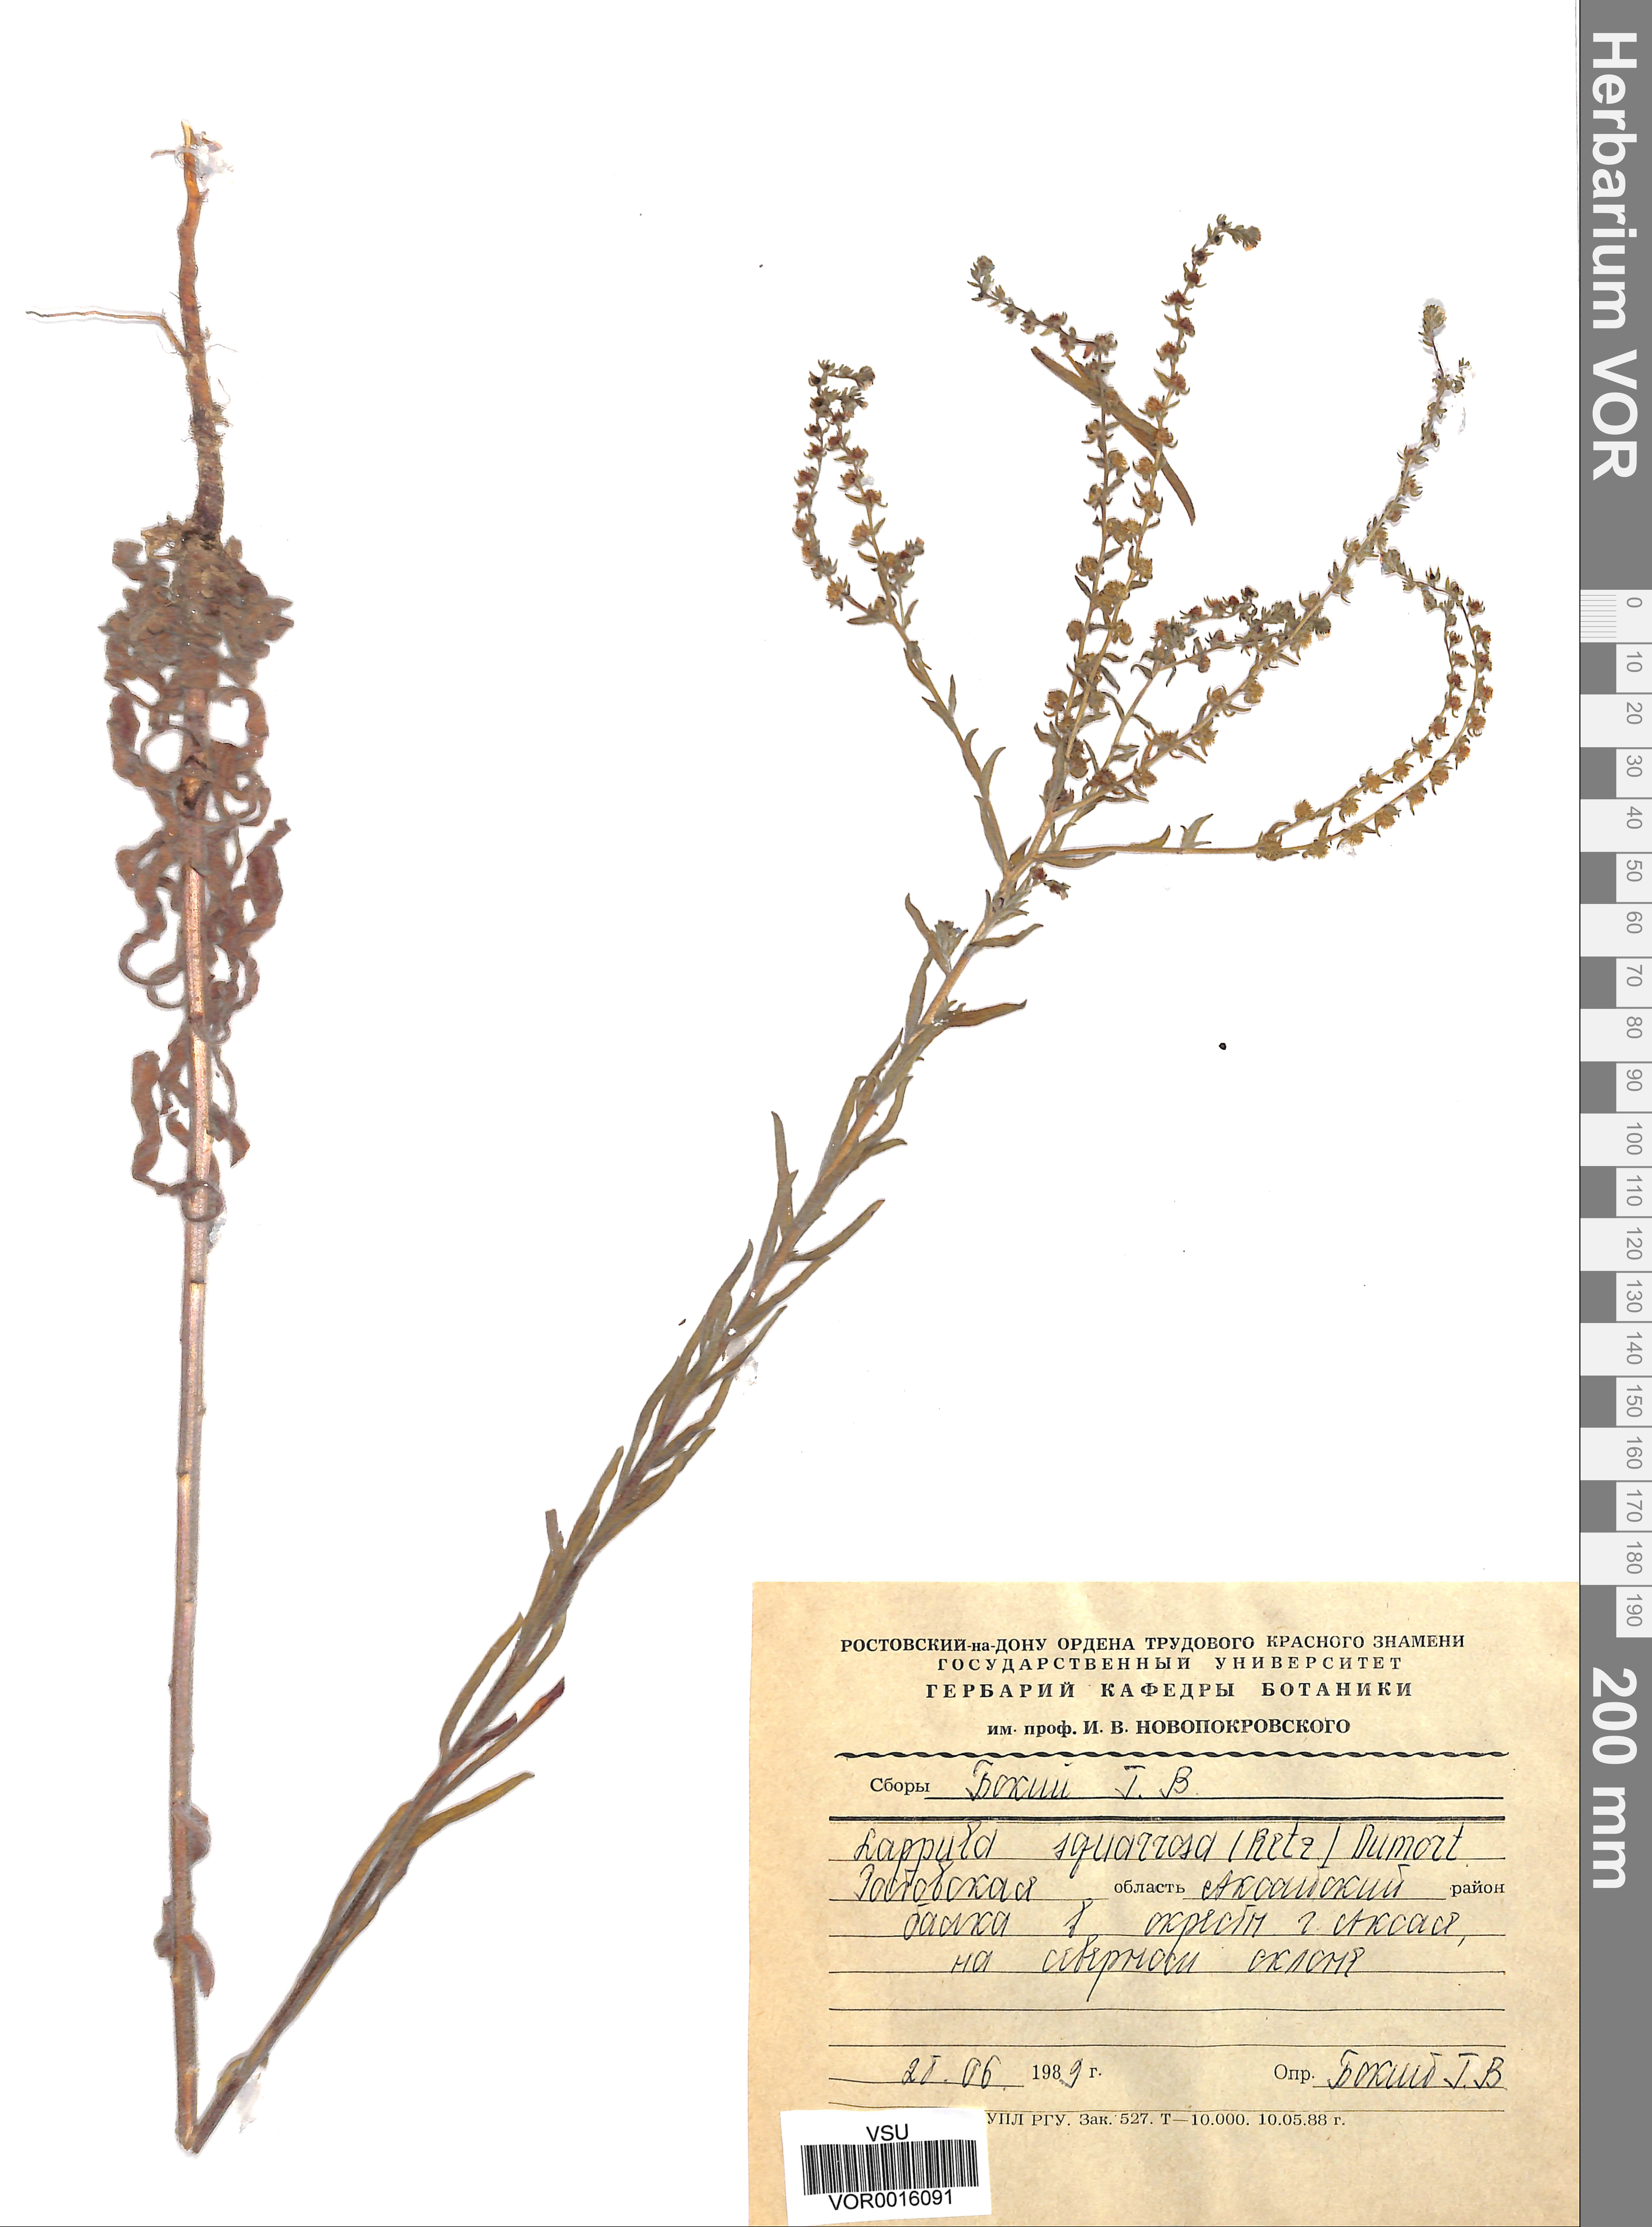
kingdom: Plantae
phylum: Tracheophyta
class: Magnoliopsida
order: Boraginales
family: Boraginaceae
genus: Lappula
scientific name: Lappula squarrosa
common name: European stickseed
